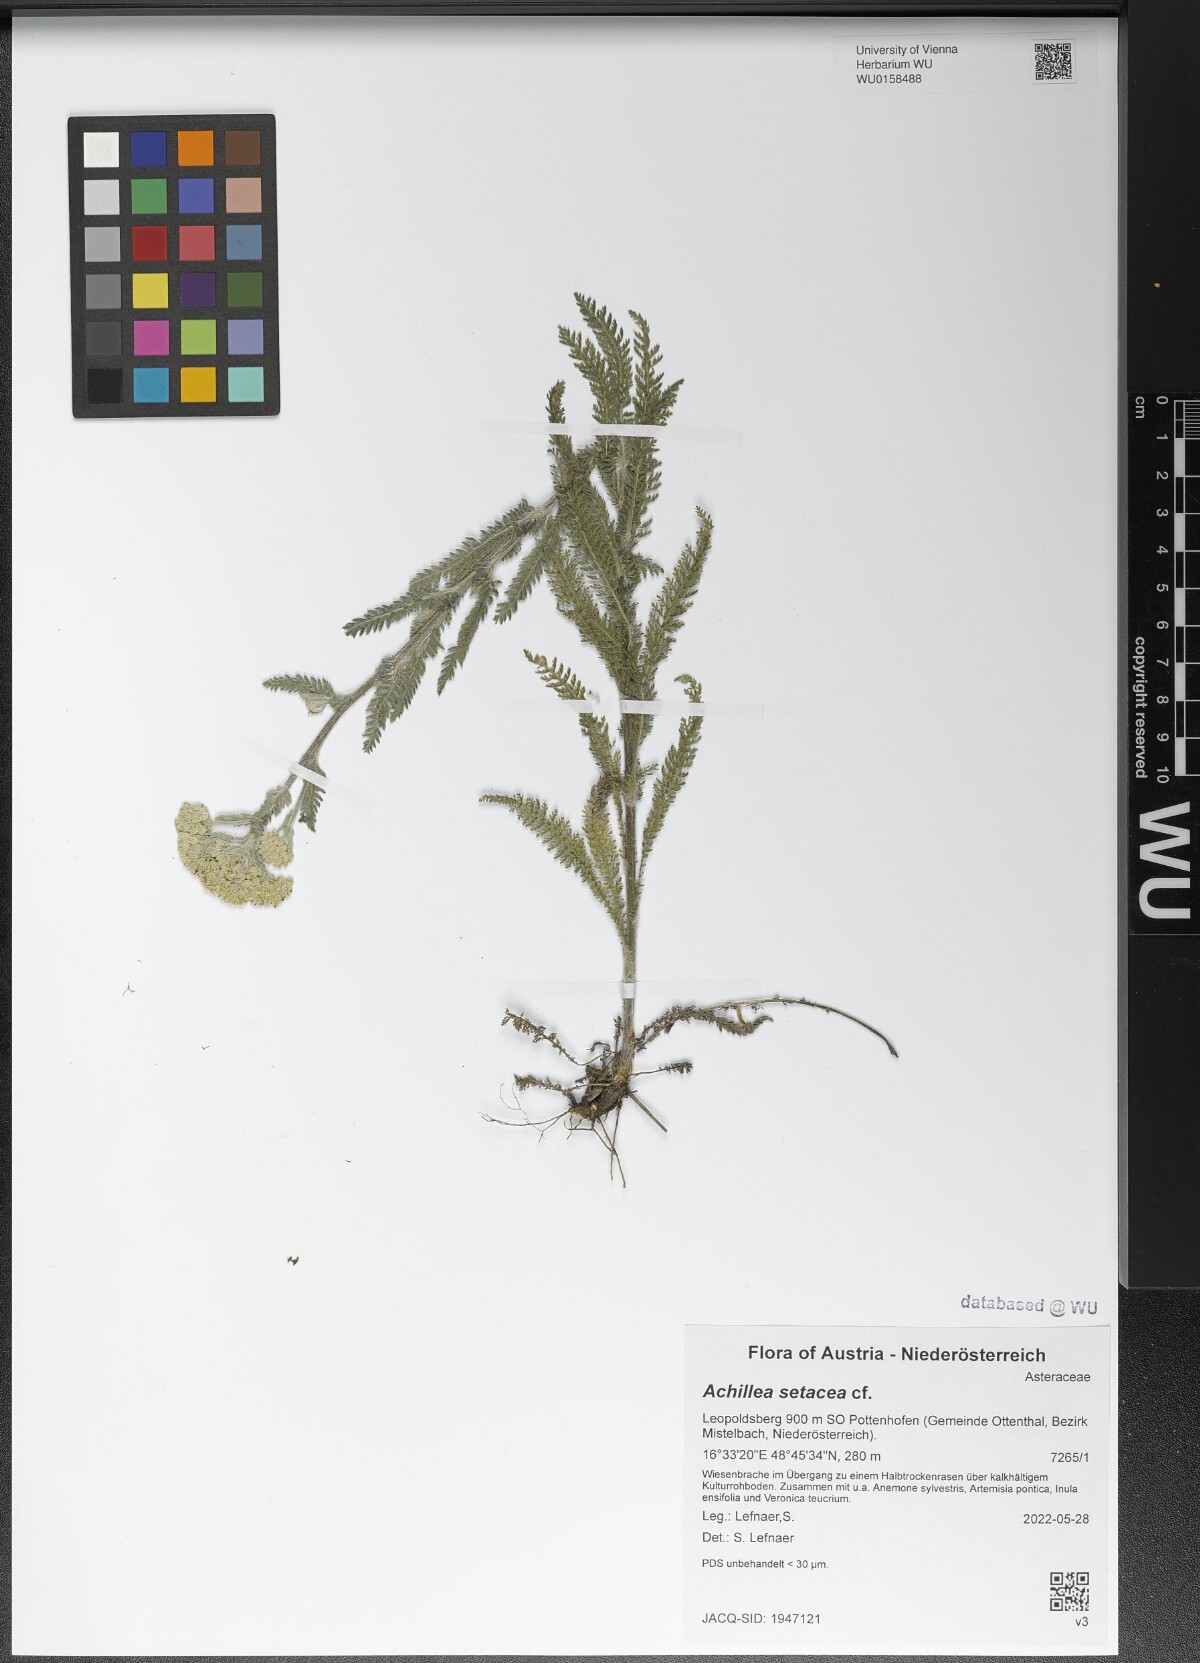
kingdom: Plantae
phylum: Tracheophyta
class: Magnoliopsida
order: Asterales
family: Asteraceae
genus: Achillea
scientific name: Achillea setacea
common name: Bristly yarrow
